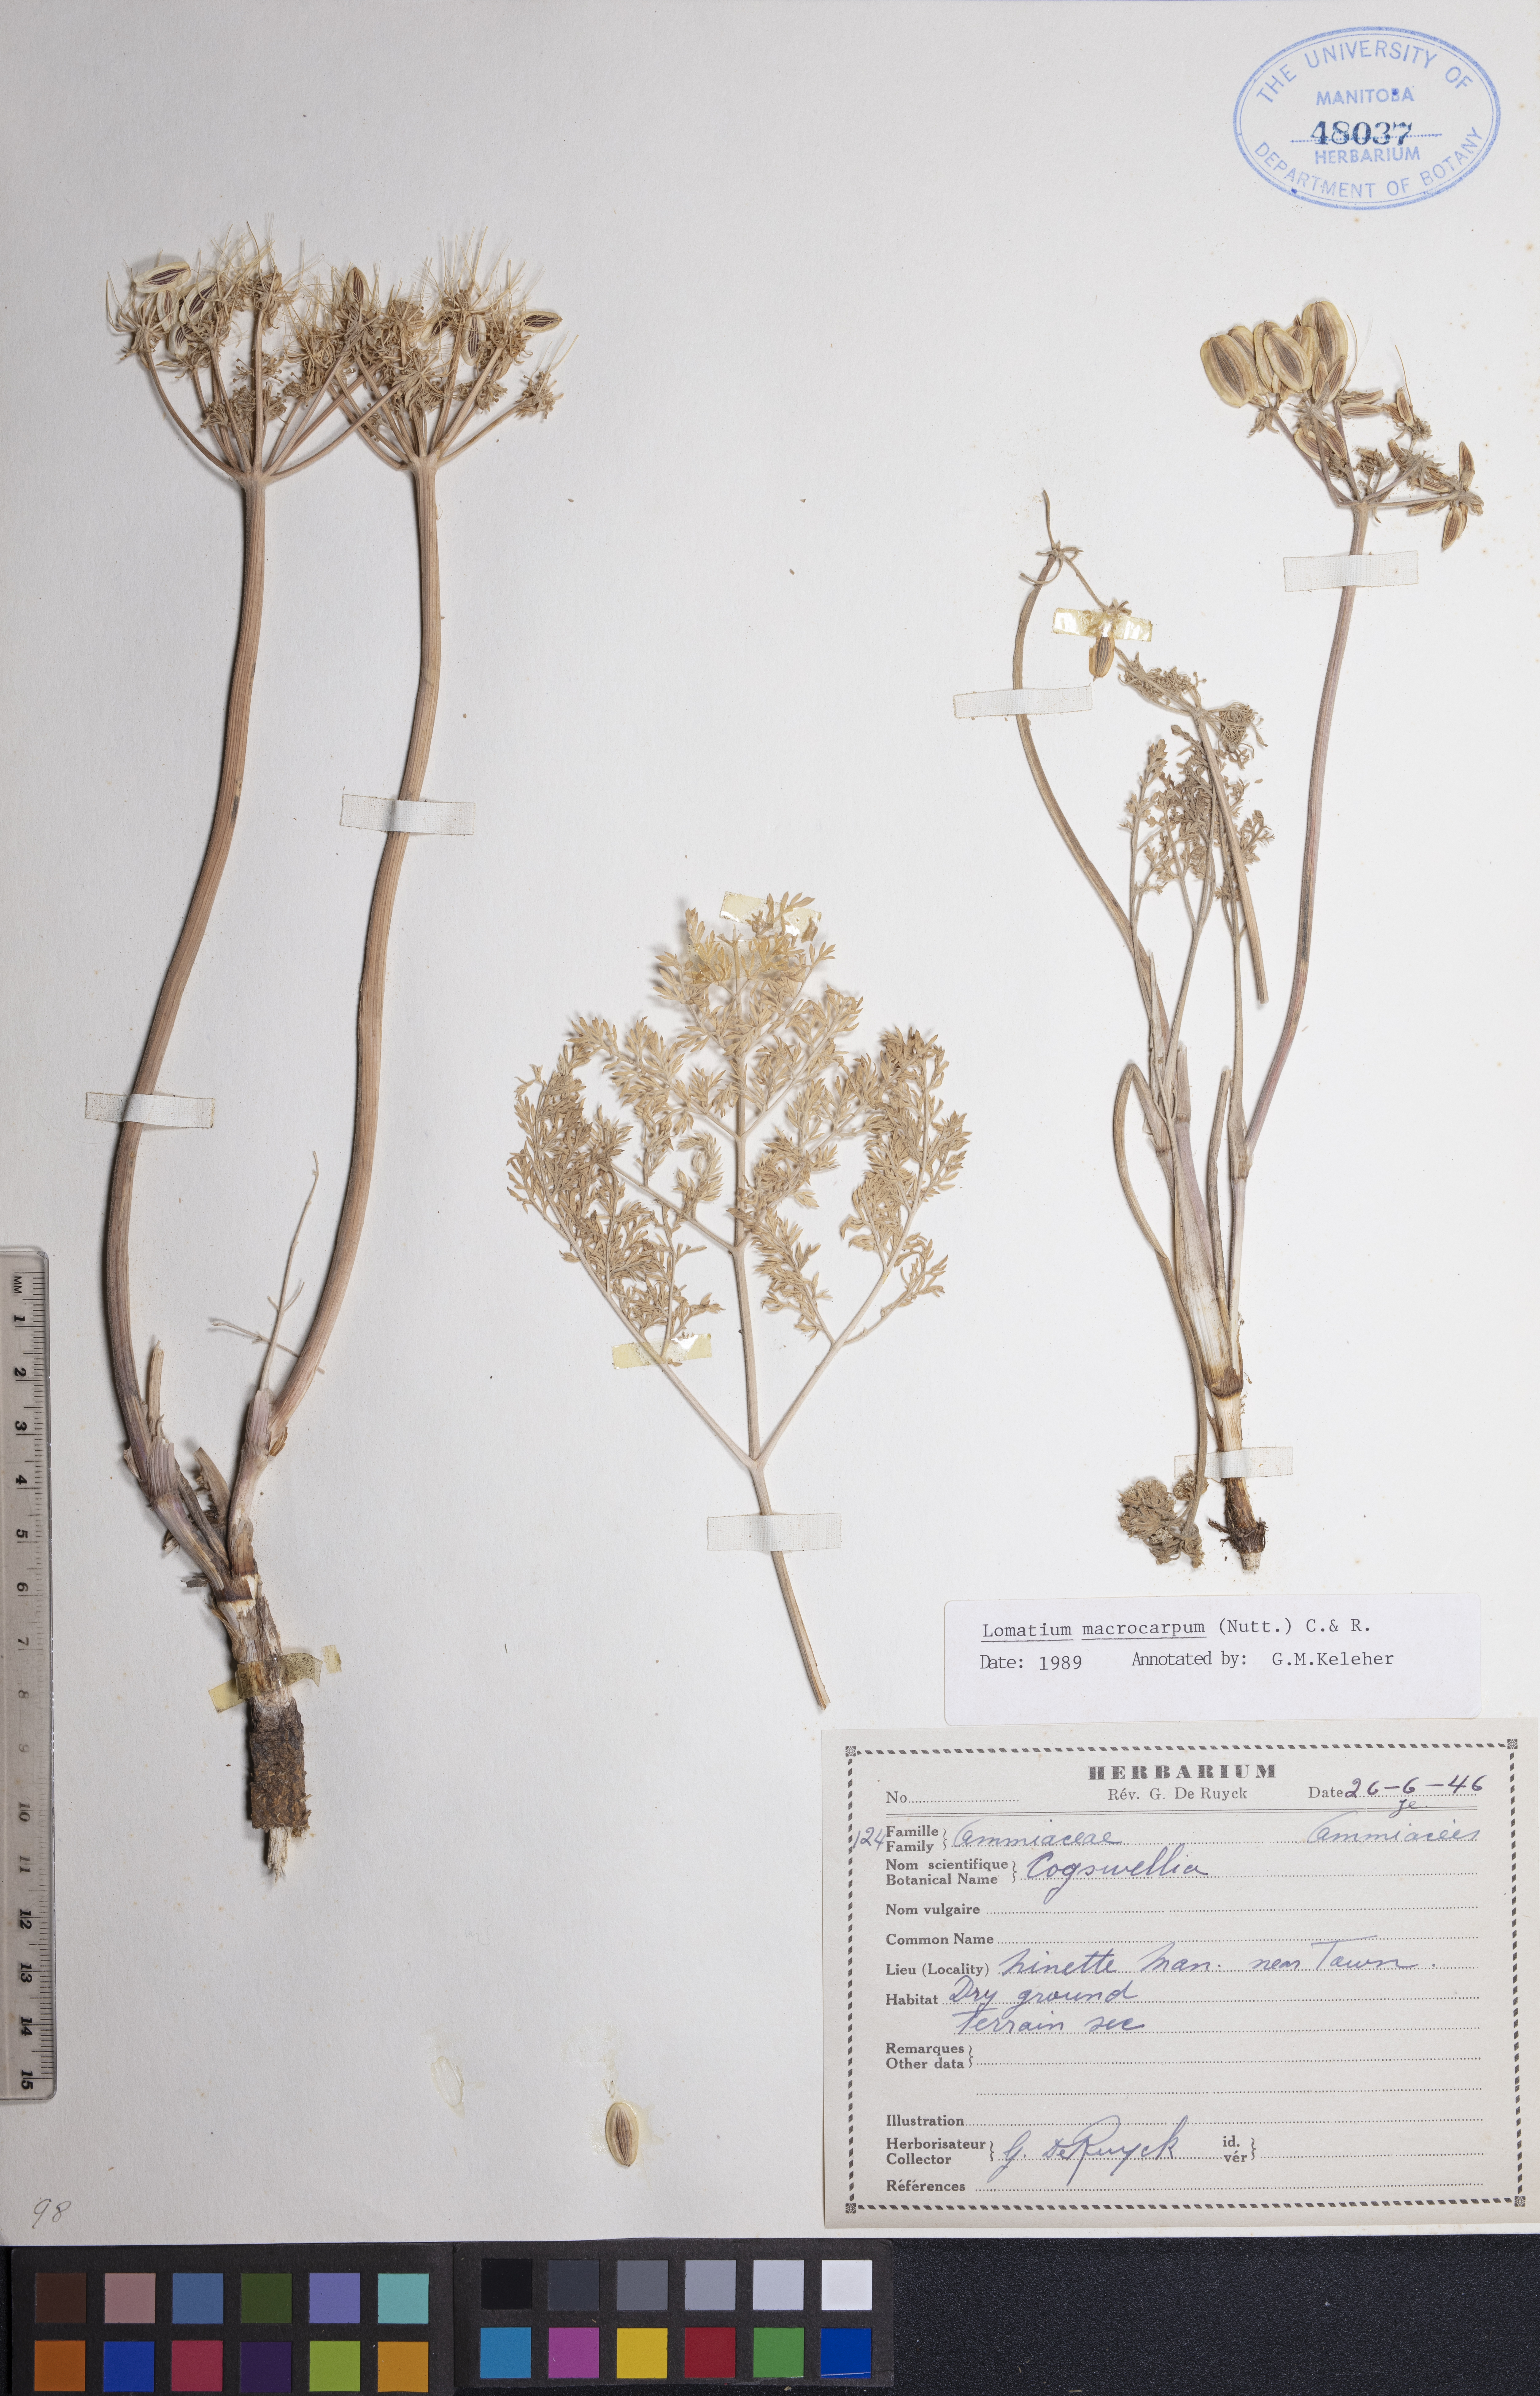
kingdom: Plantae
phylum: Tracheophyta
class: Magnoliopsida
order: Apiales
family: Apiaceae
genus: Lomatium
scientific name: Lomatium macrocarpum
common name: Big-seed biscuitroot
